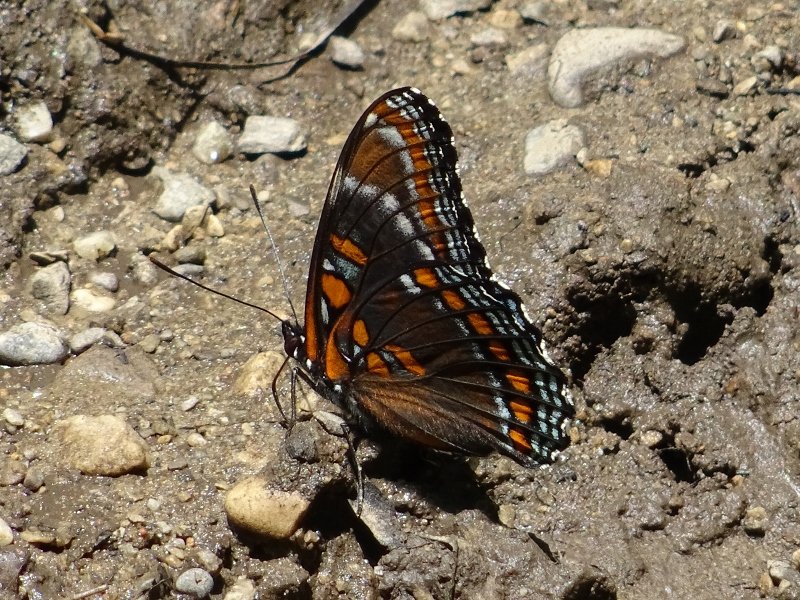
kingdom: Animalia
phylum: Arthropoda
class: Insecta
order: Lepidoptera
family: Nymphalidae
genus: Limenitis
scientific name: Limenitis astyanax
